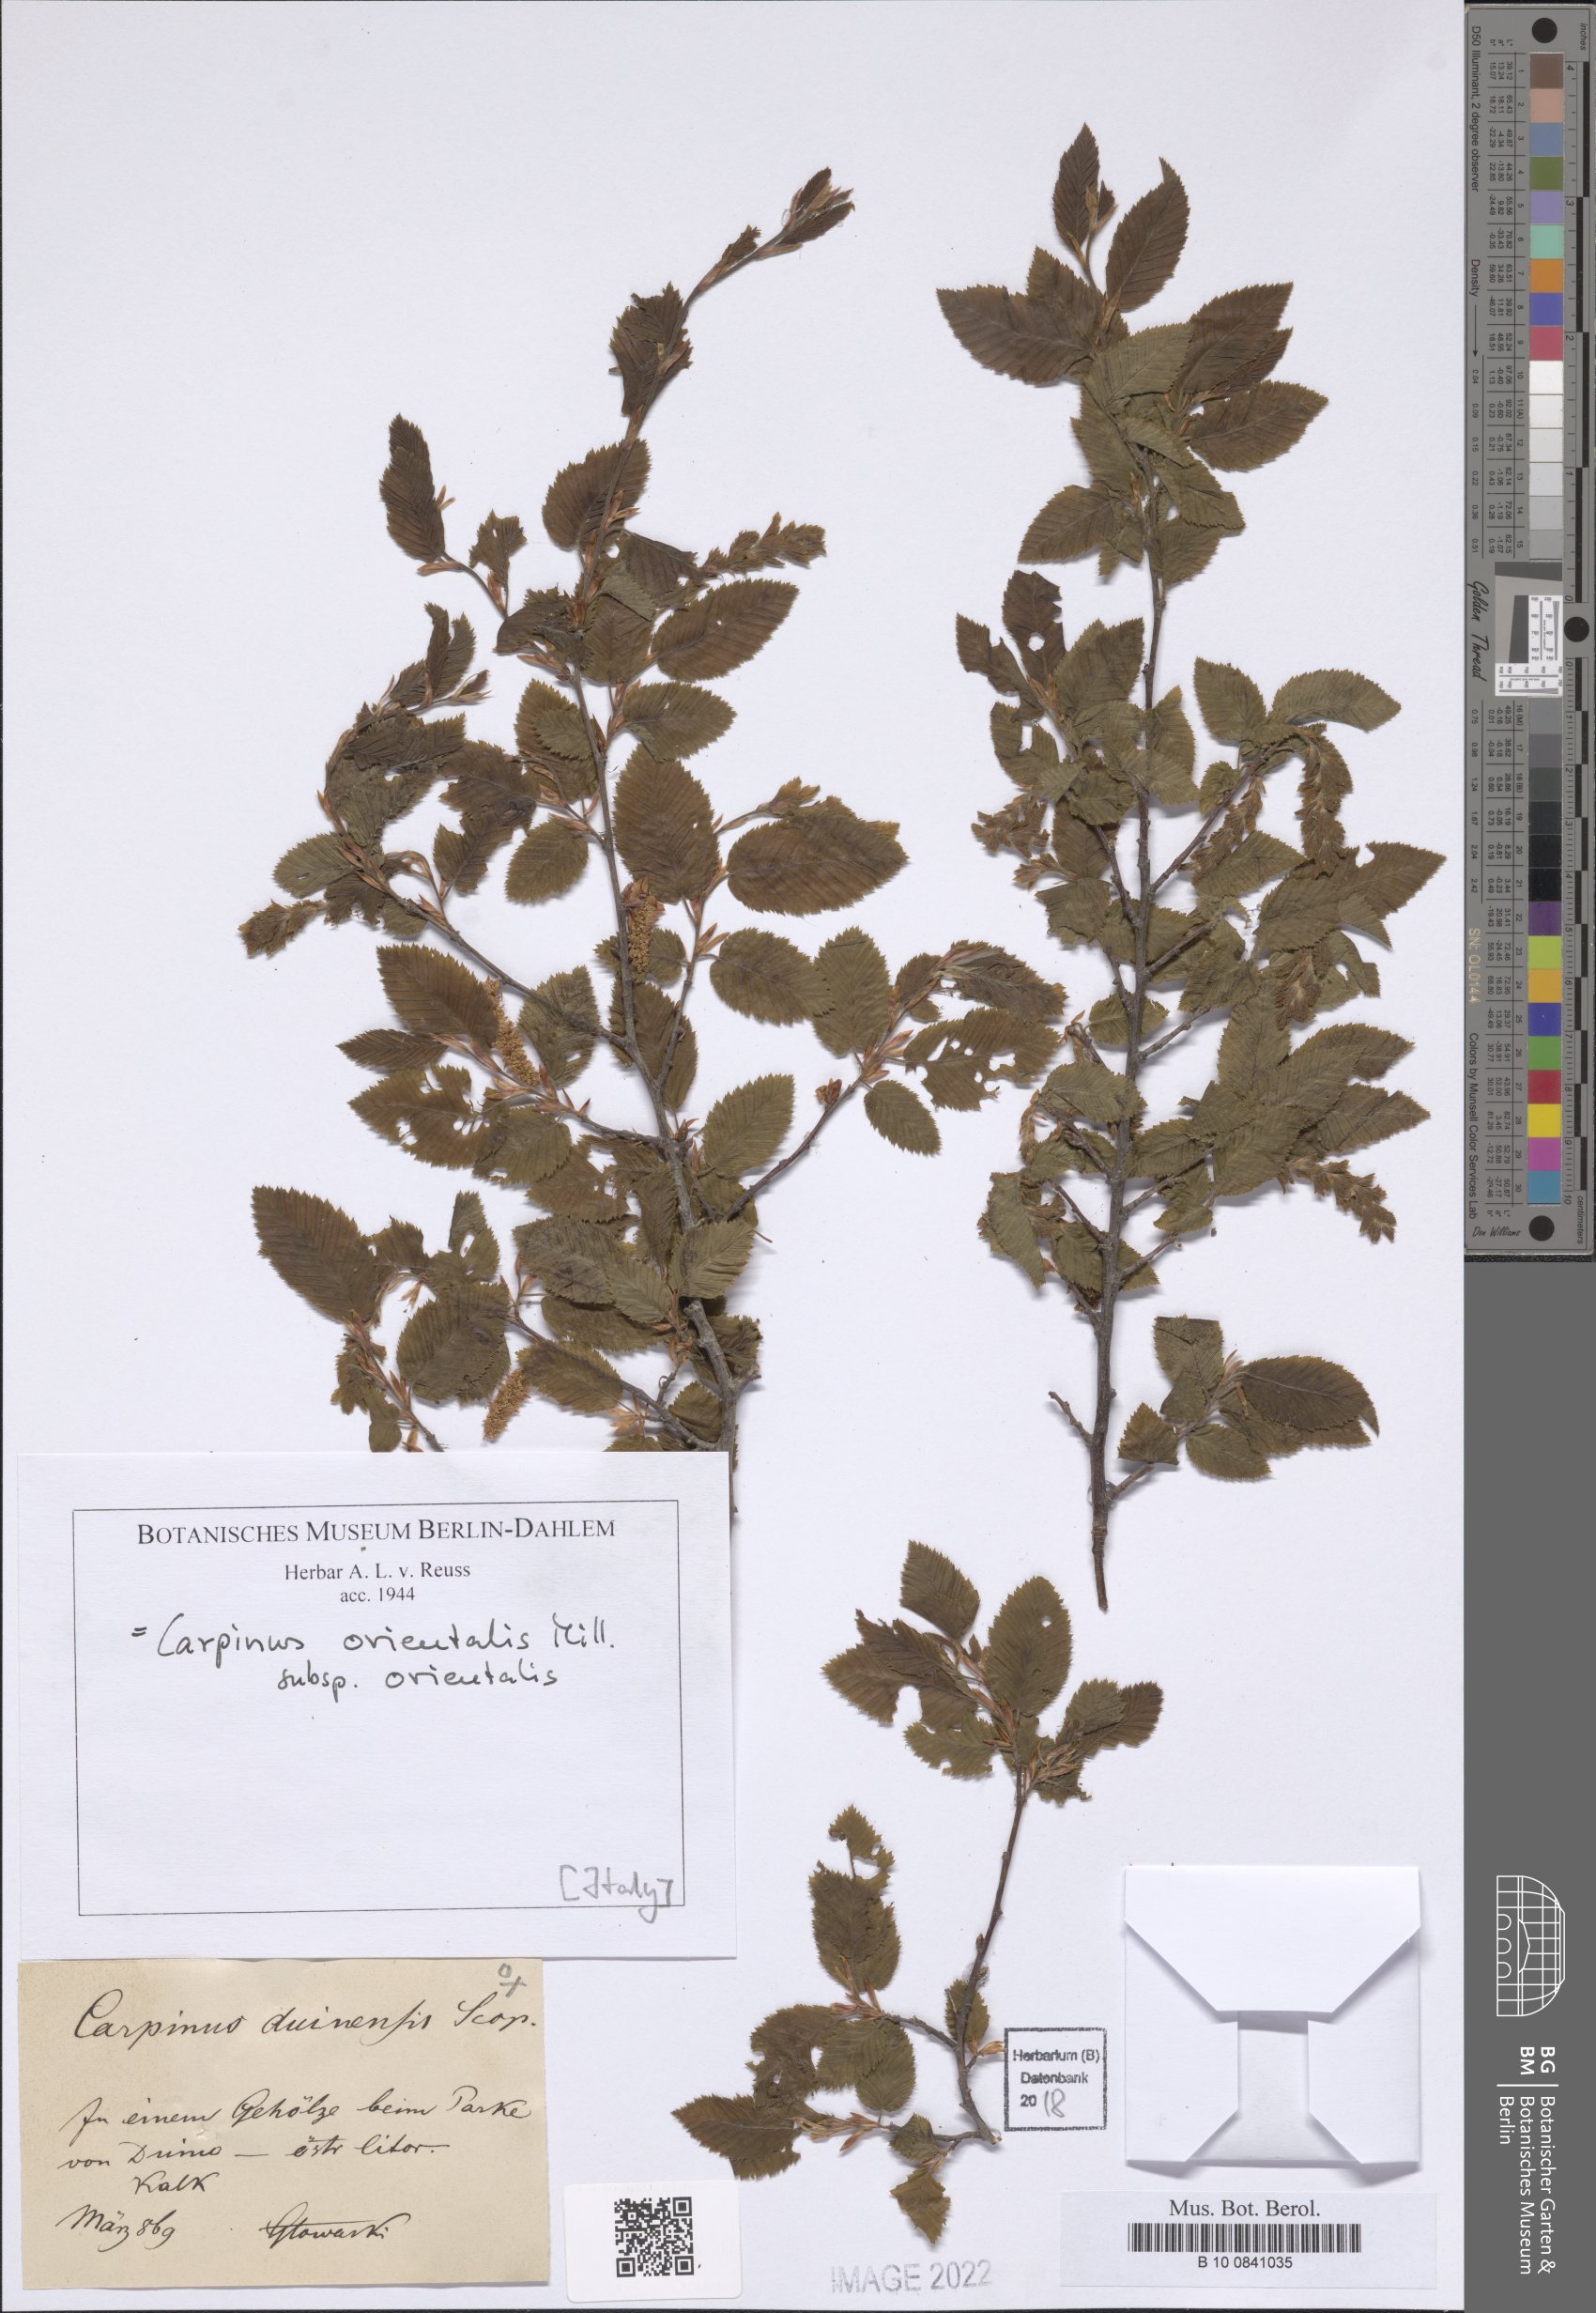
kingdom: Plantae
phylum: Tracheophyta
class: Magnoliopsida
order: Fagales
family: Betulaceae
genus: Carpinus
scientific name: Carpinus orientalis
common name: Eastern hornbeam
